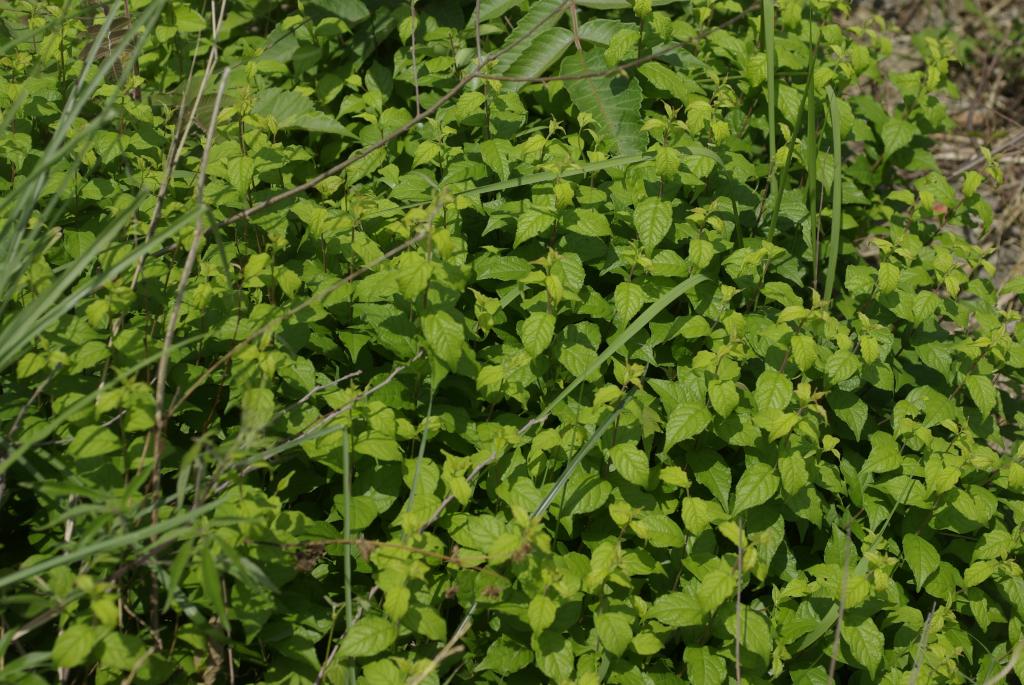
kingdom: Plantae
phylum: Tracheophyta
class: Magnoliopsida
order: Rosales
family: Rosaceae
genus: Prunus
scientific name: Prunus japonica
